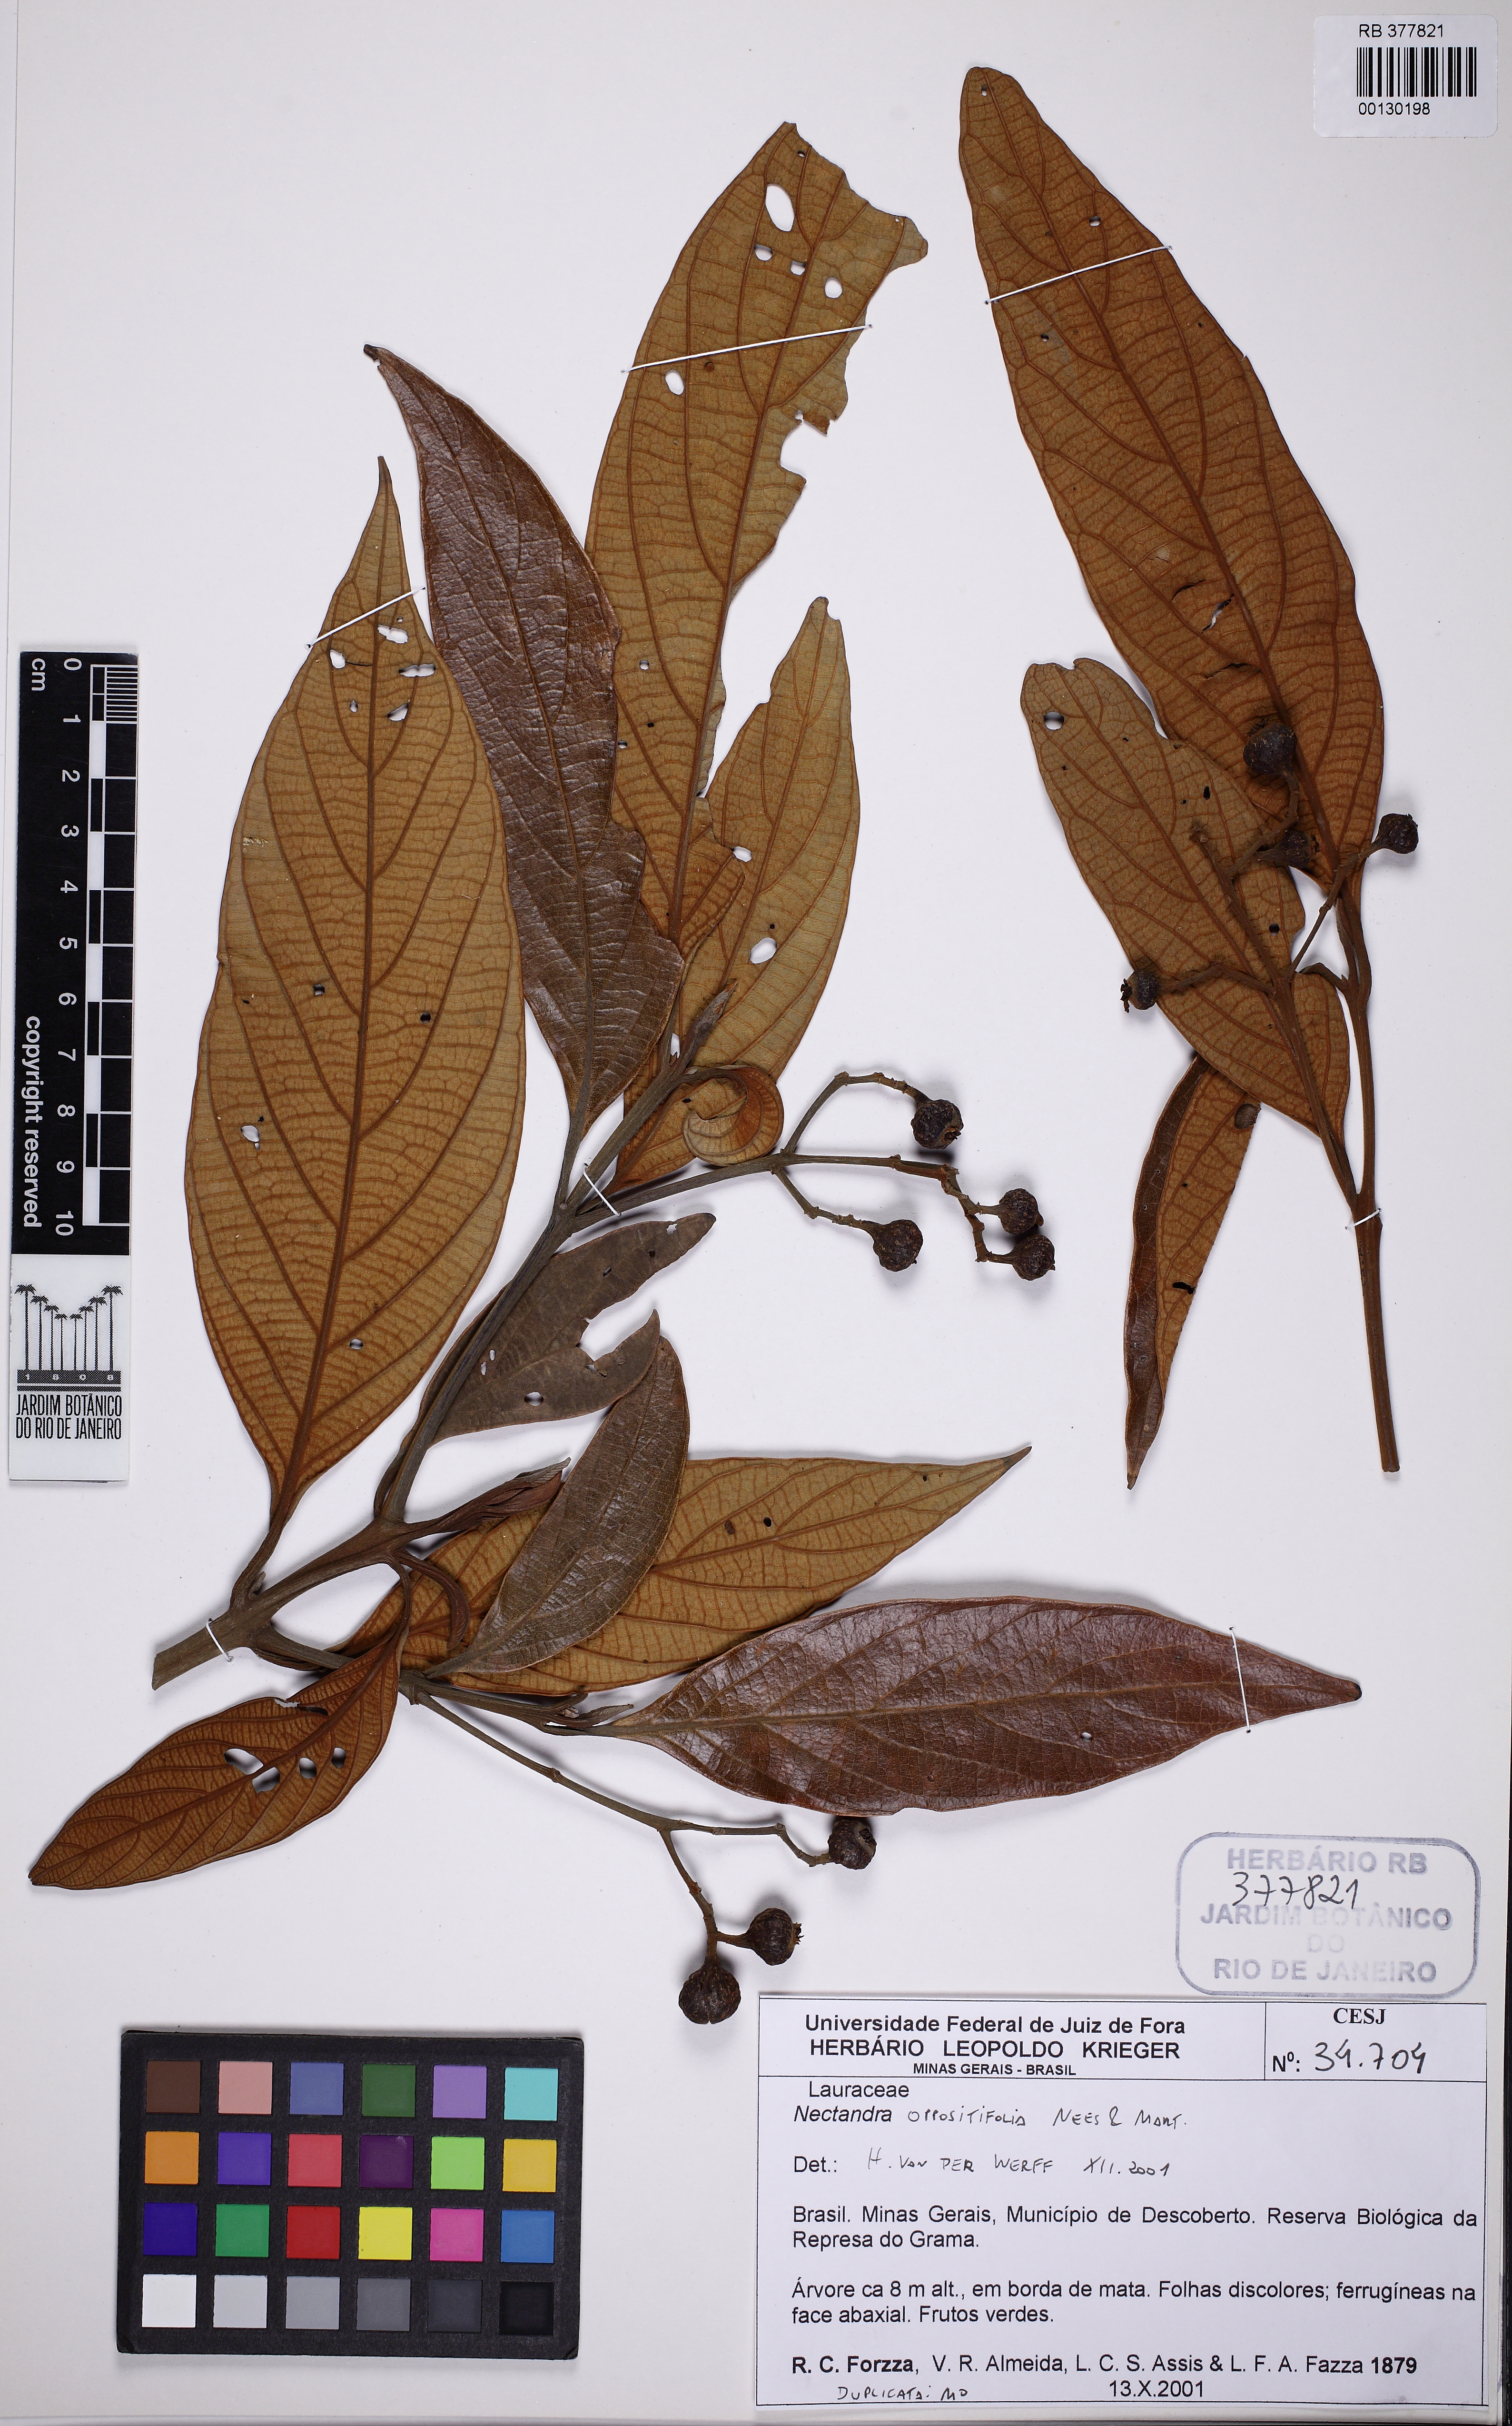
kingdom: Plantae
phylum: Tracheophyta
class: Magnoliopsida
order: Laurales
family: Lauraceae
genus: Nectandra
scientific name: Nectandra oppositifolia
